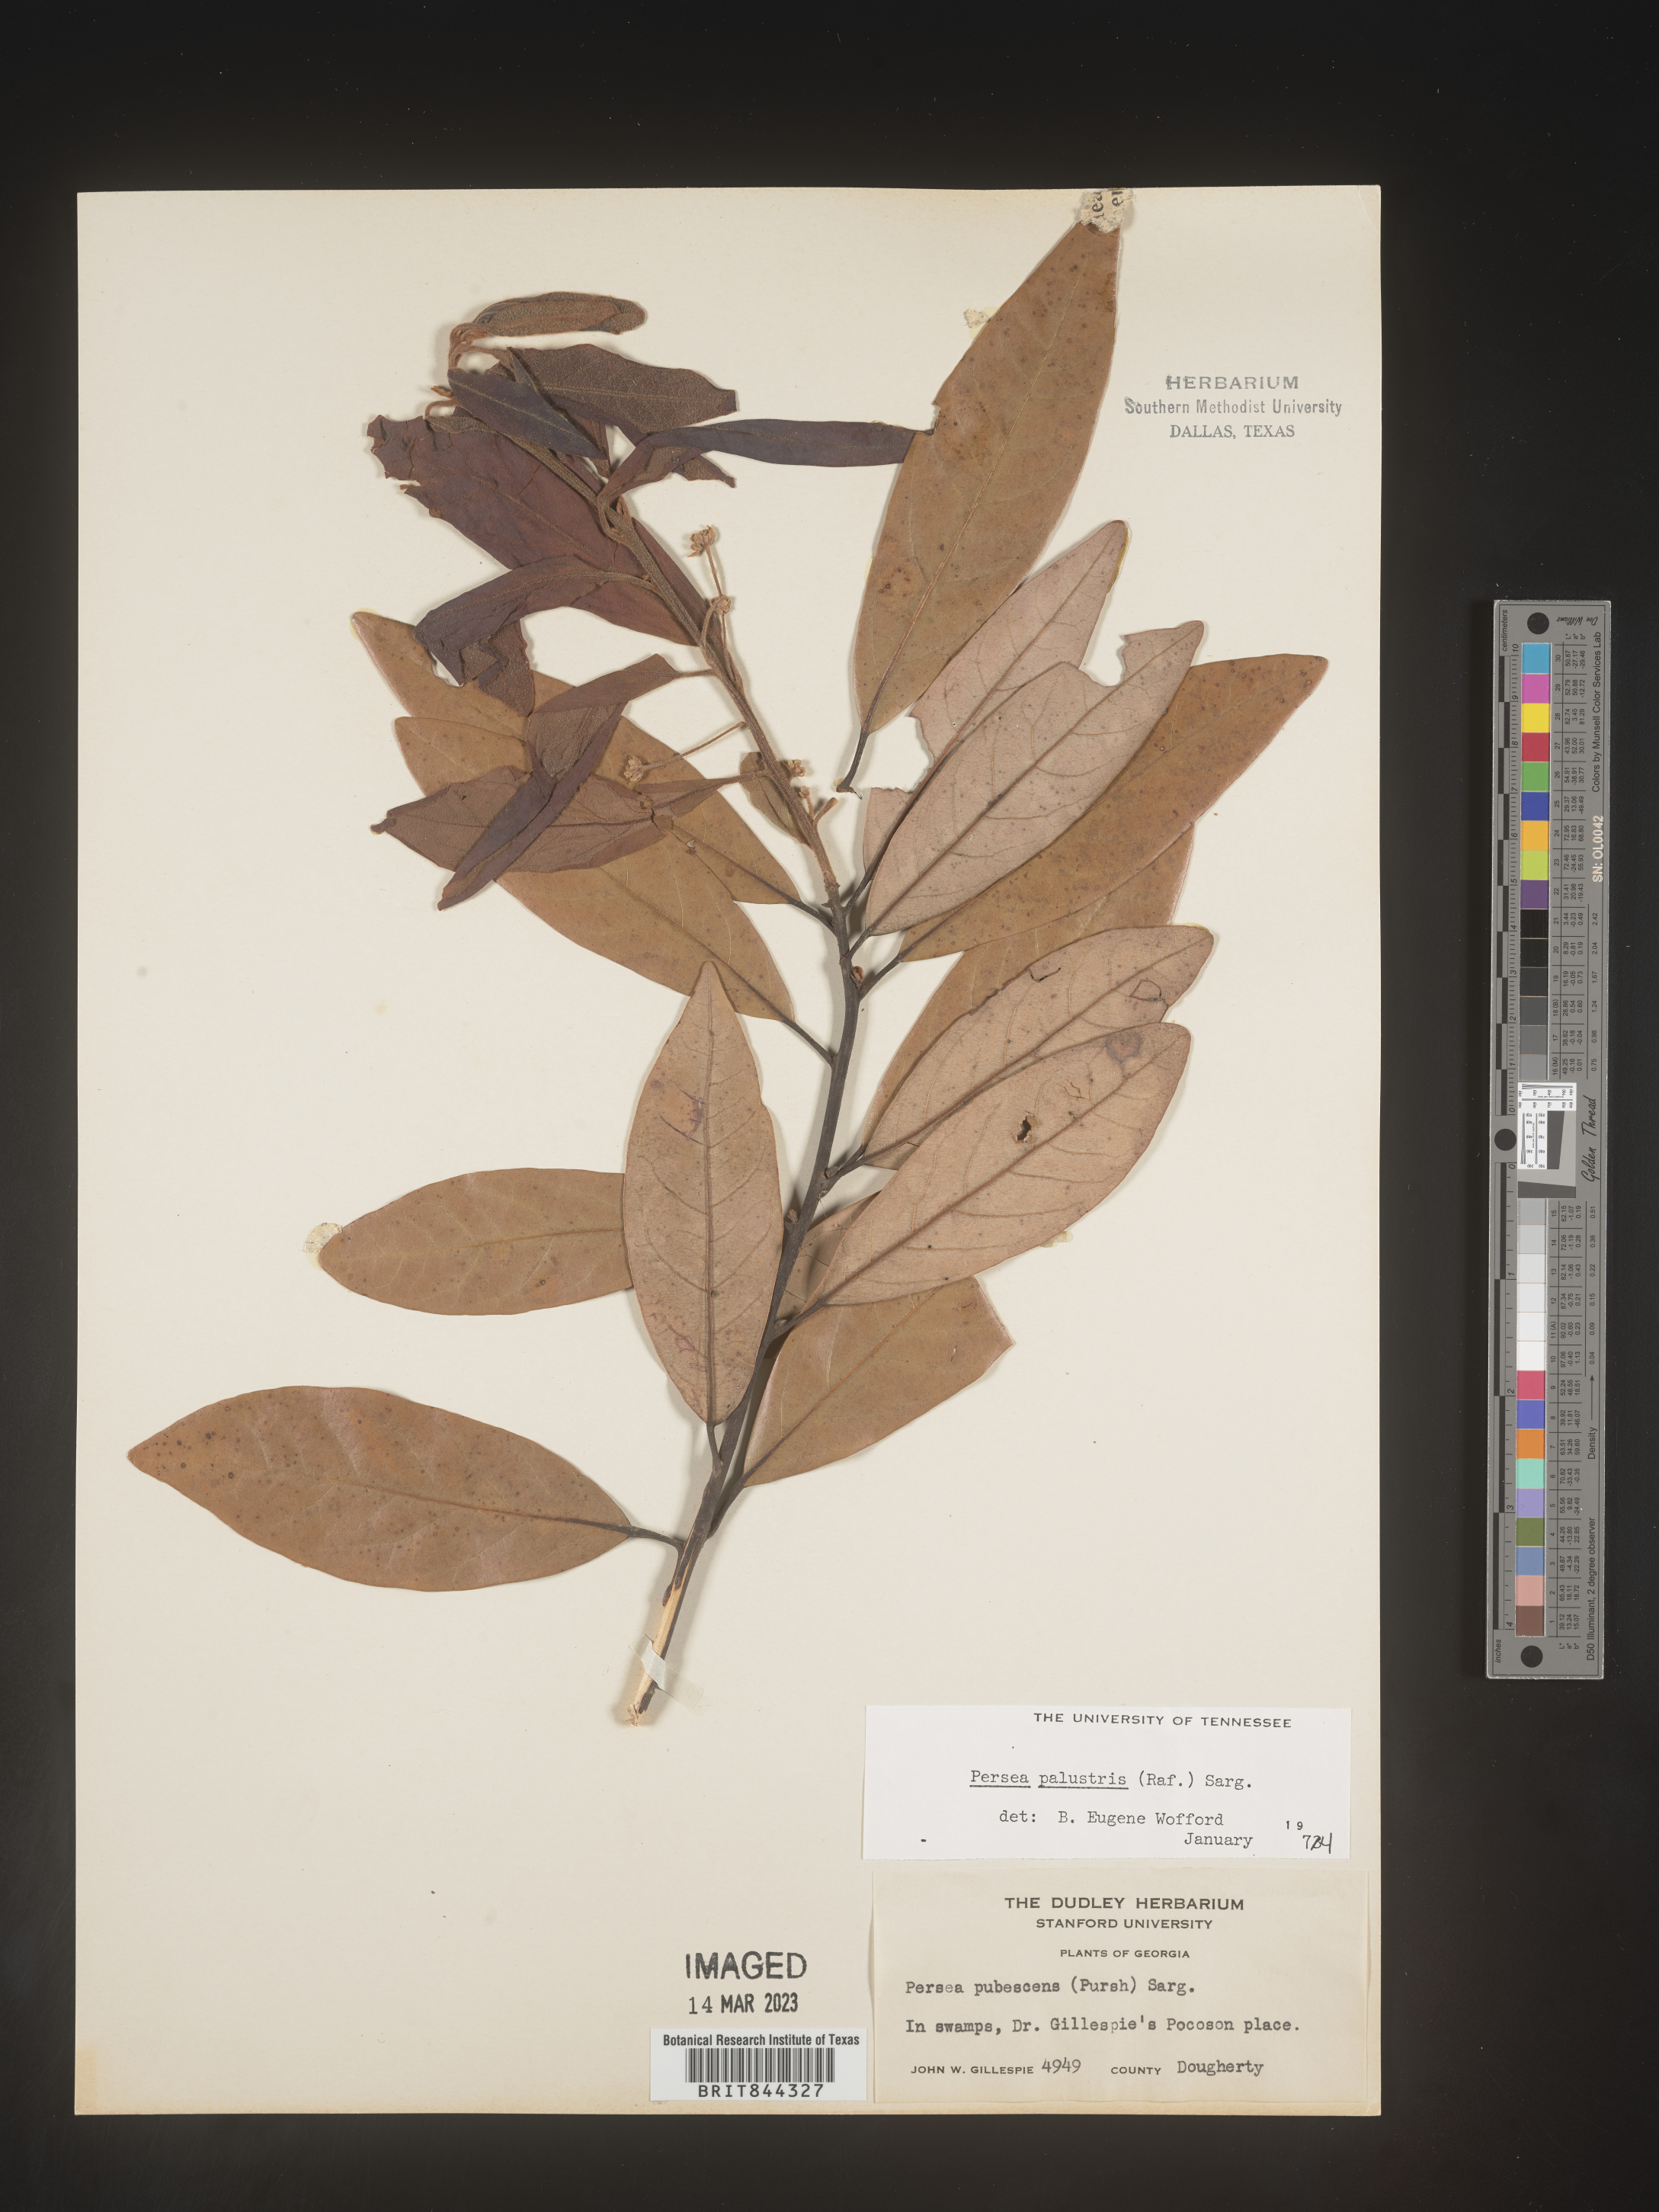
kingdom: Plantae
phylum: Tracheophyta
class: Magnoliopsida
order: Laurales
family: Lauraceae
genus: Persea
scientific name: Persea palustris
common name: Swampbay
